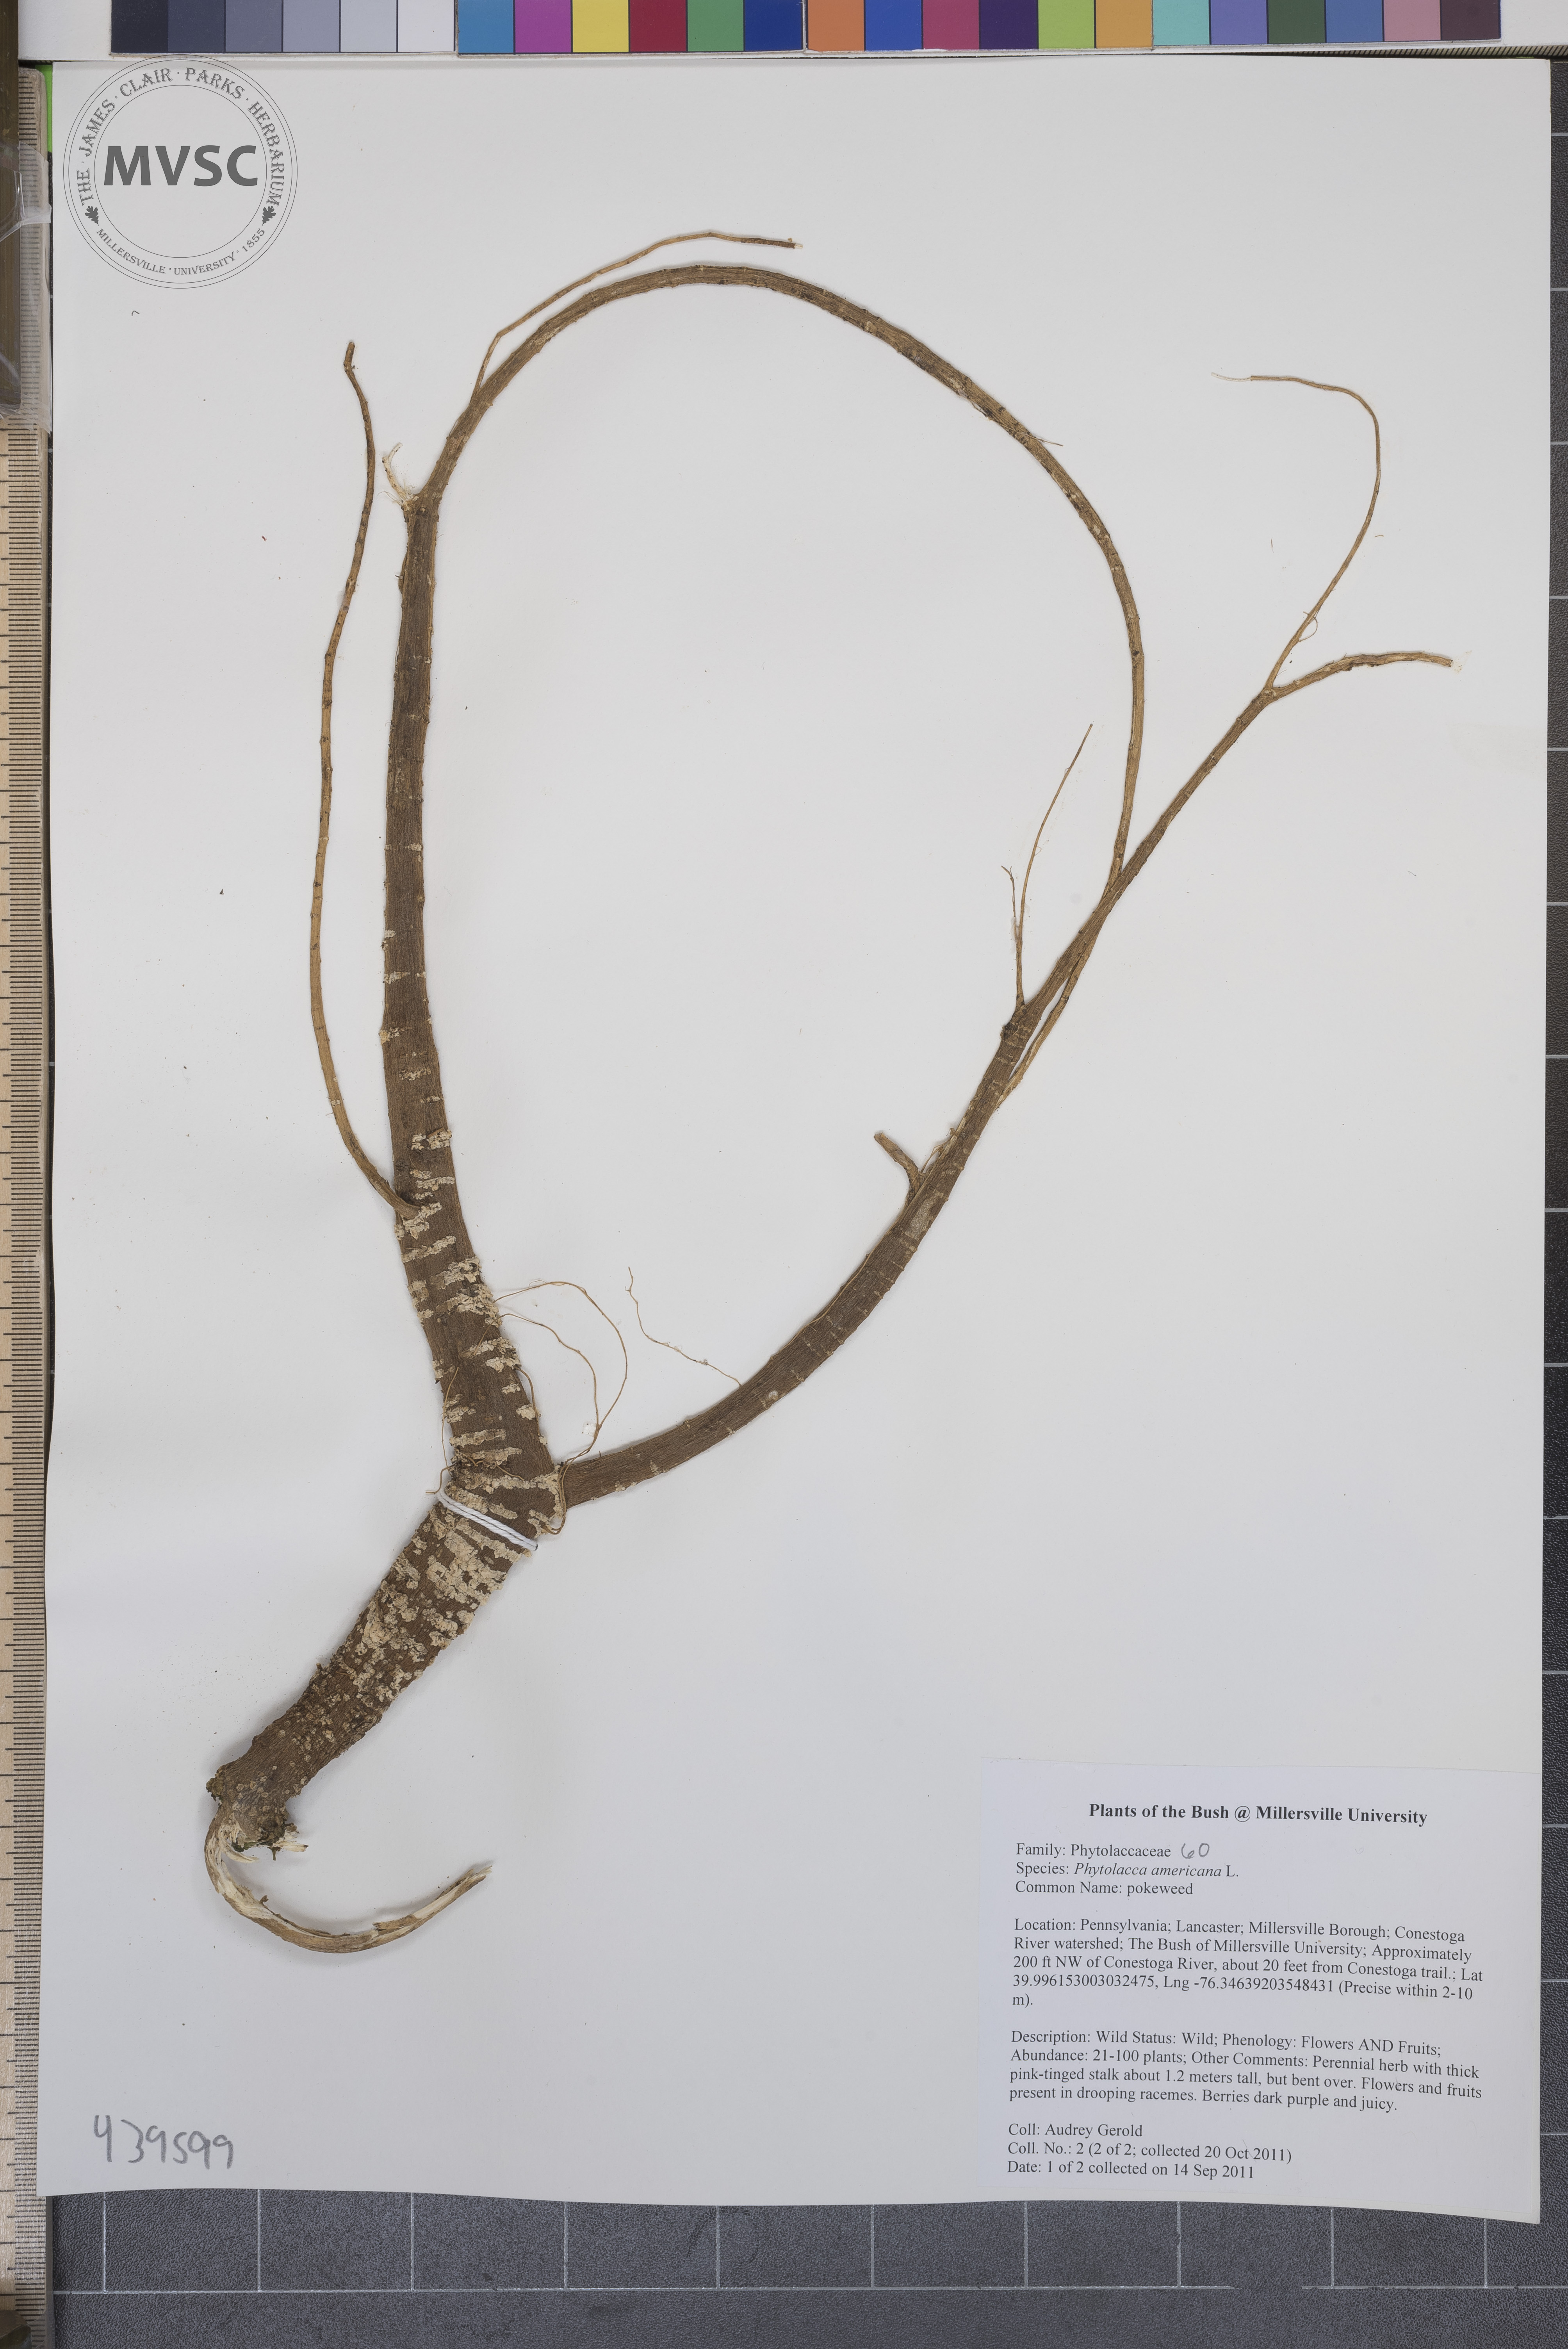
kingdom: Plantae
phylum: Tracheophyta
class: Magnoliopsida
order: Caryophyllales
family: Phytolaccaceae
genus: Phytolacca
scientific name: Phytolacca americana
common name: Pokeweed
